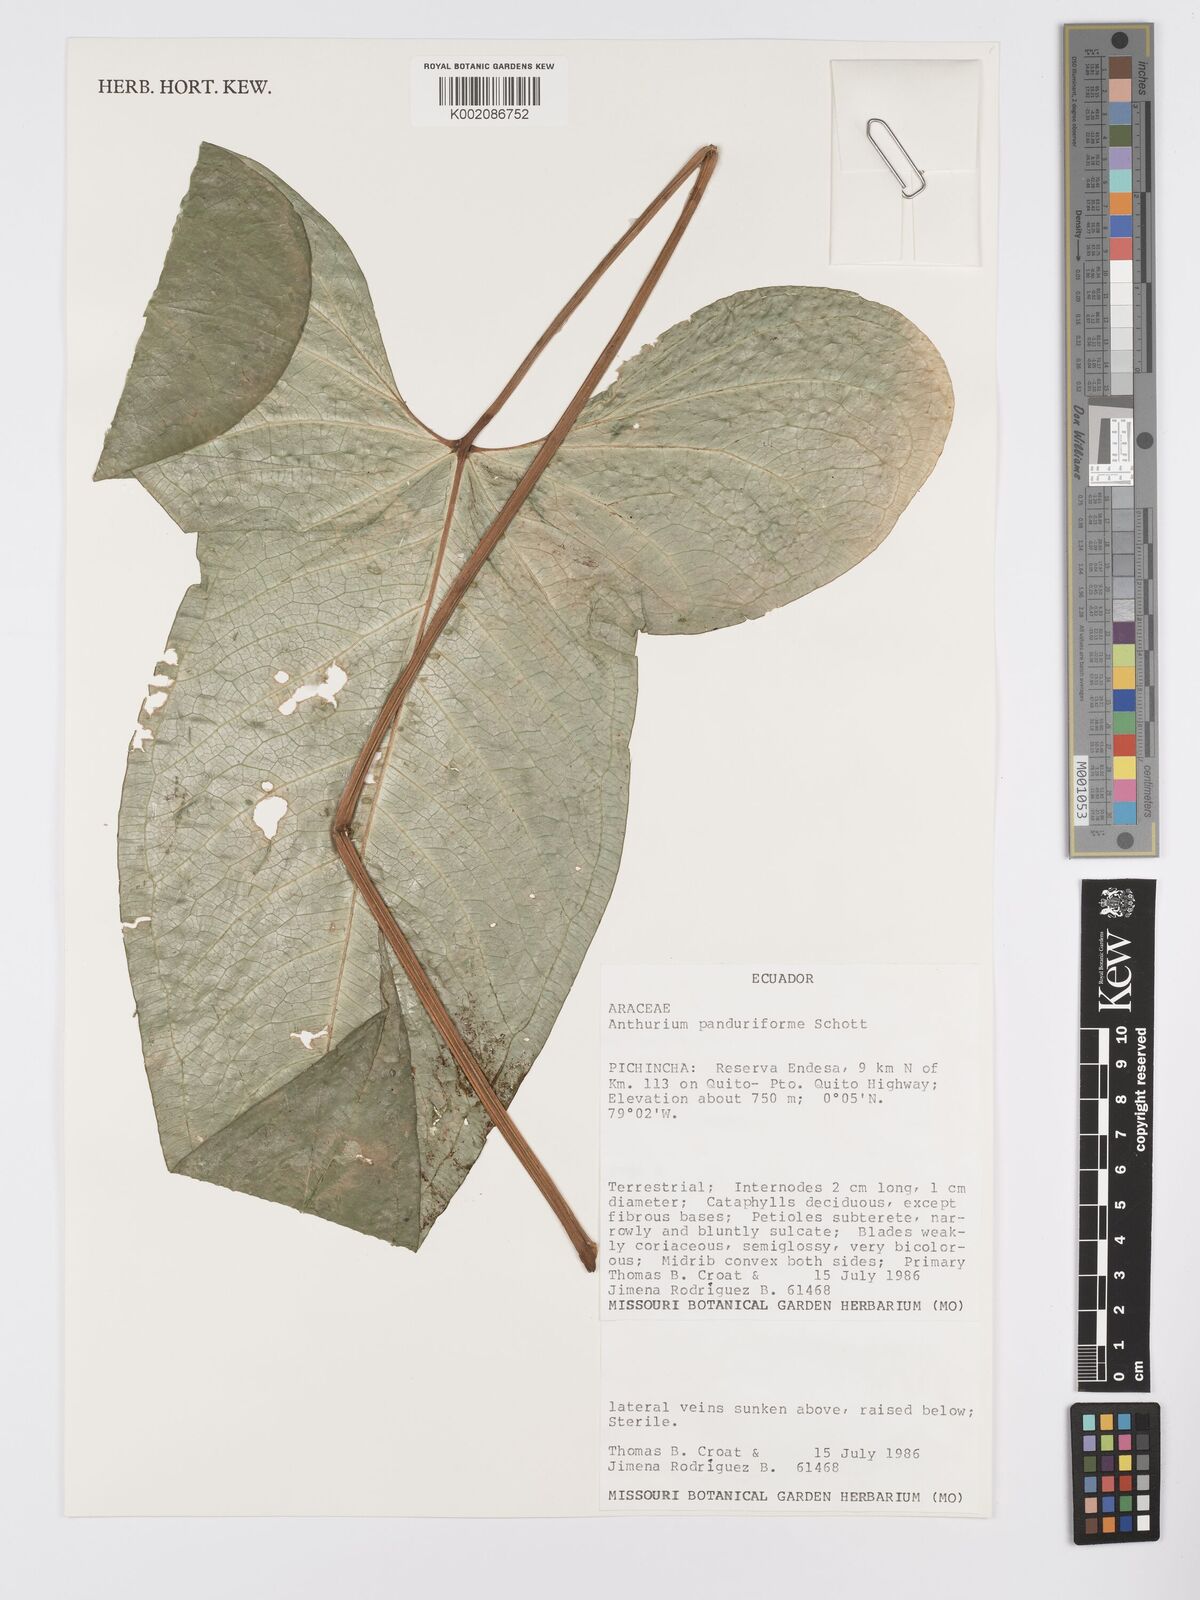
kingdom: Plantae
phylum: Tracheophyta
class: Liliopsida
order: Alismatales
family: Araceae
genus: Anthurium
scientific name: Anthurium panduriforme
